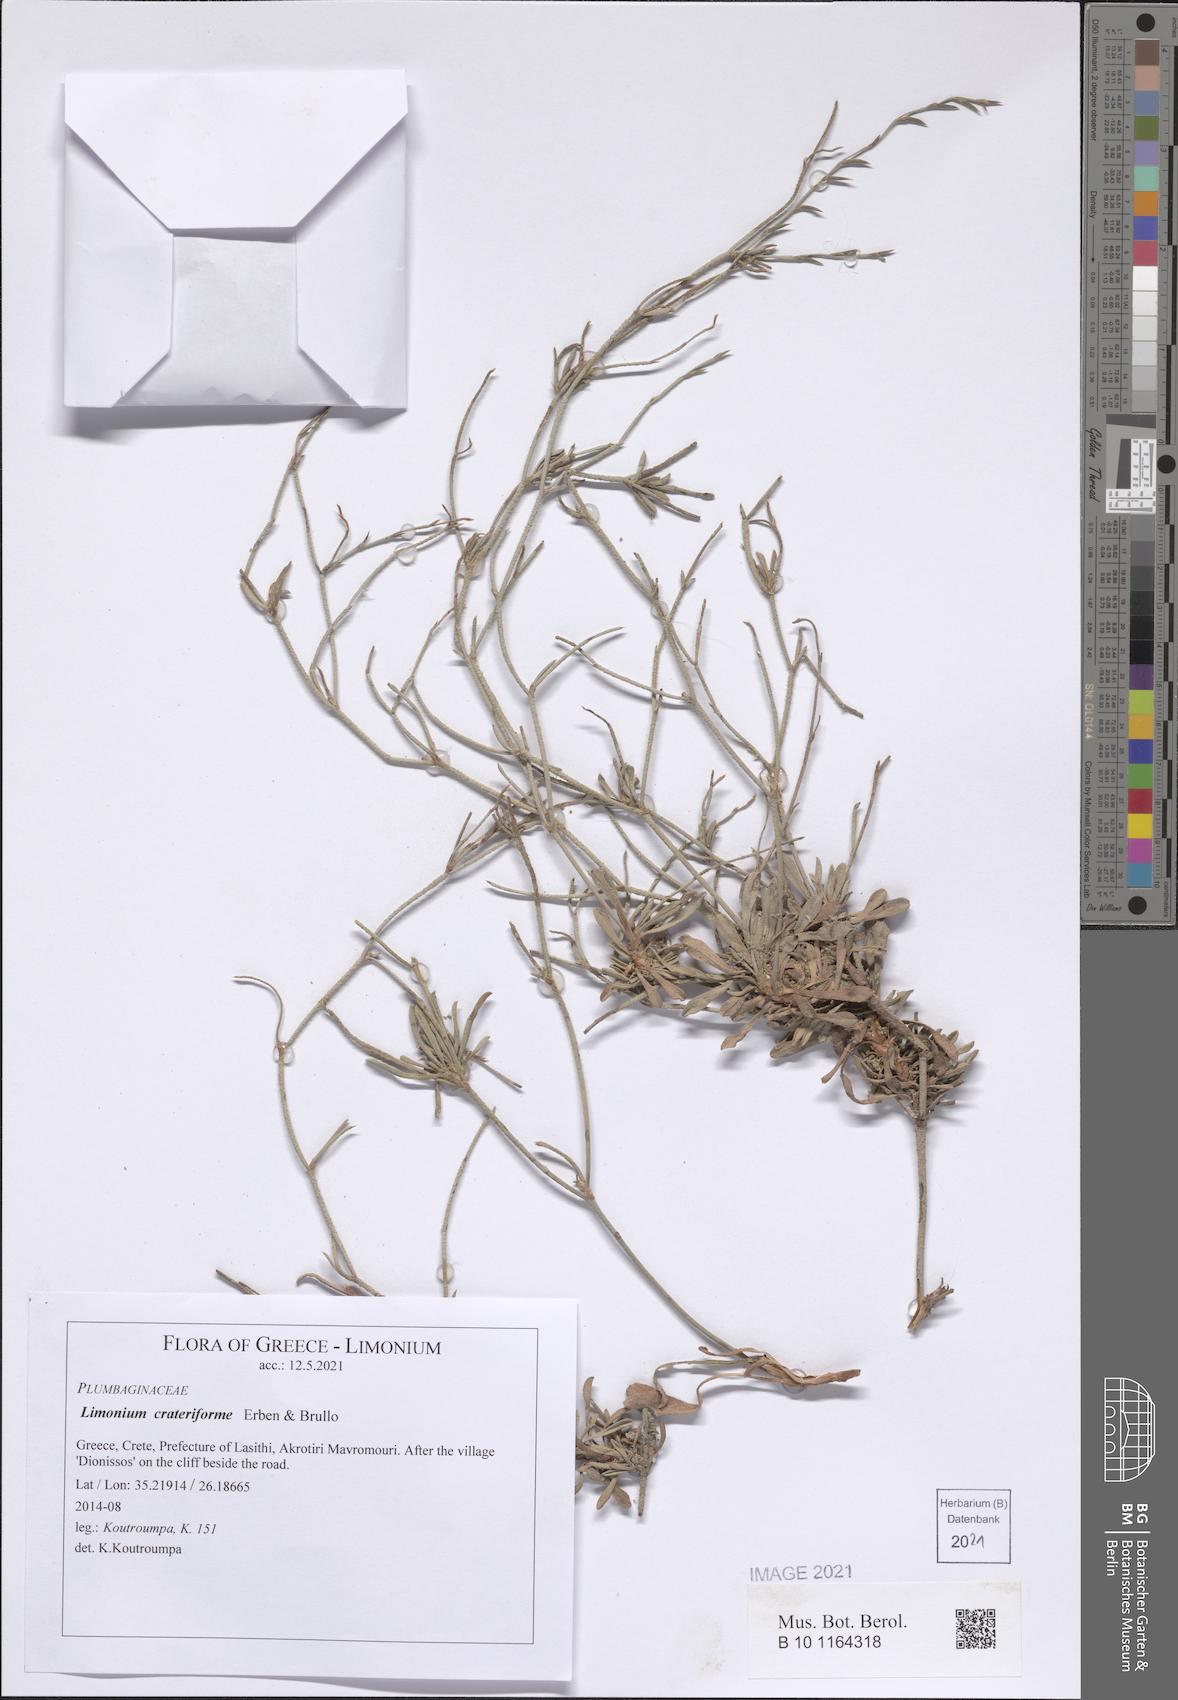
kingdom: Plantae
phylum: Tracheophyta
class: Magnoliopsida
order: Caryophyllales
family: Plumbaginaceae
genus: Limonium
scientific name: Limonium crateriforme
